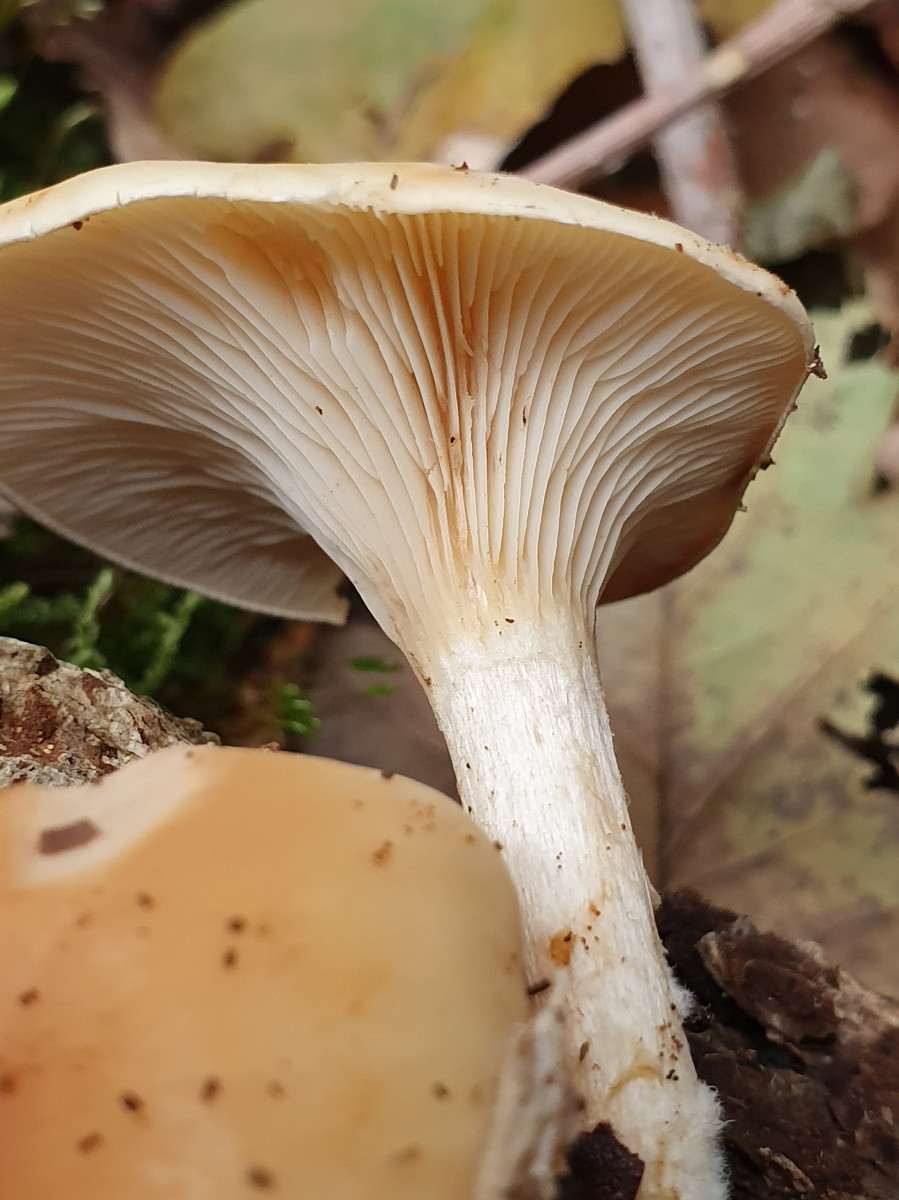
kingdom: Fungi
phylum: Basidiomycota
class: Agaricomycetes
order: Agaricales
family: Tricholomataceae
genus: Paralepista
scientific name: Paralepista flaccida
